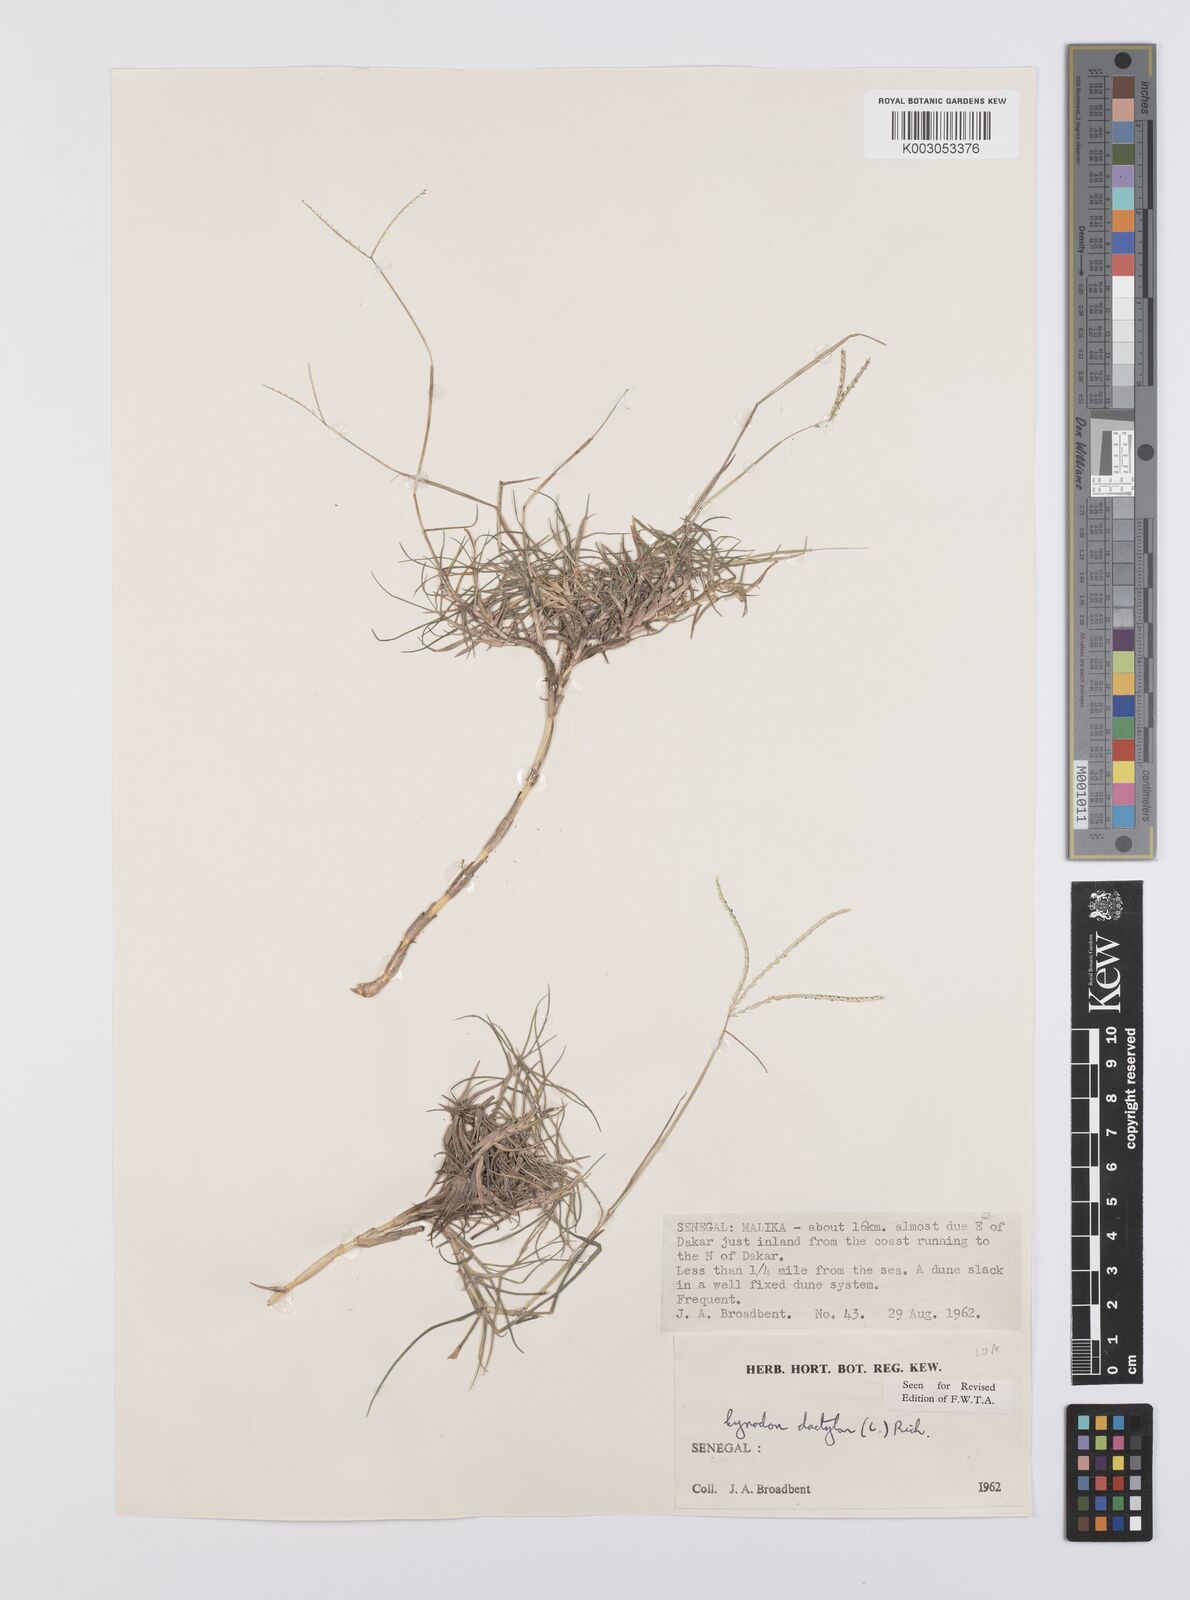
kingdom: Plantae
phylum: Tracheophyta
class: Liliopsida
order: Poales
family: Poaceae
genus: Cynodon
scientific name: Cynodon dactylon
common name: Bermuda grass
